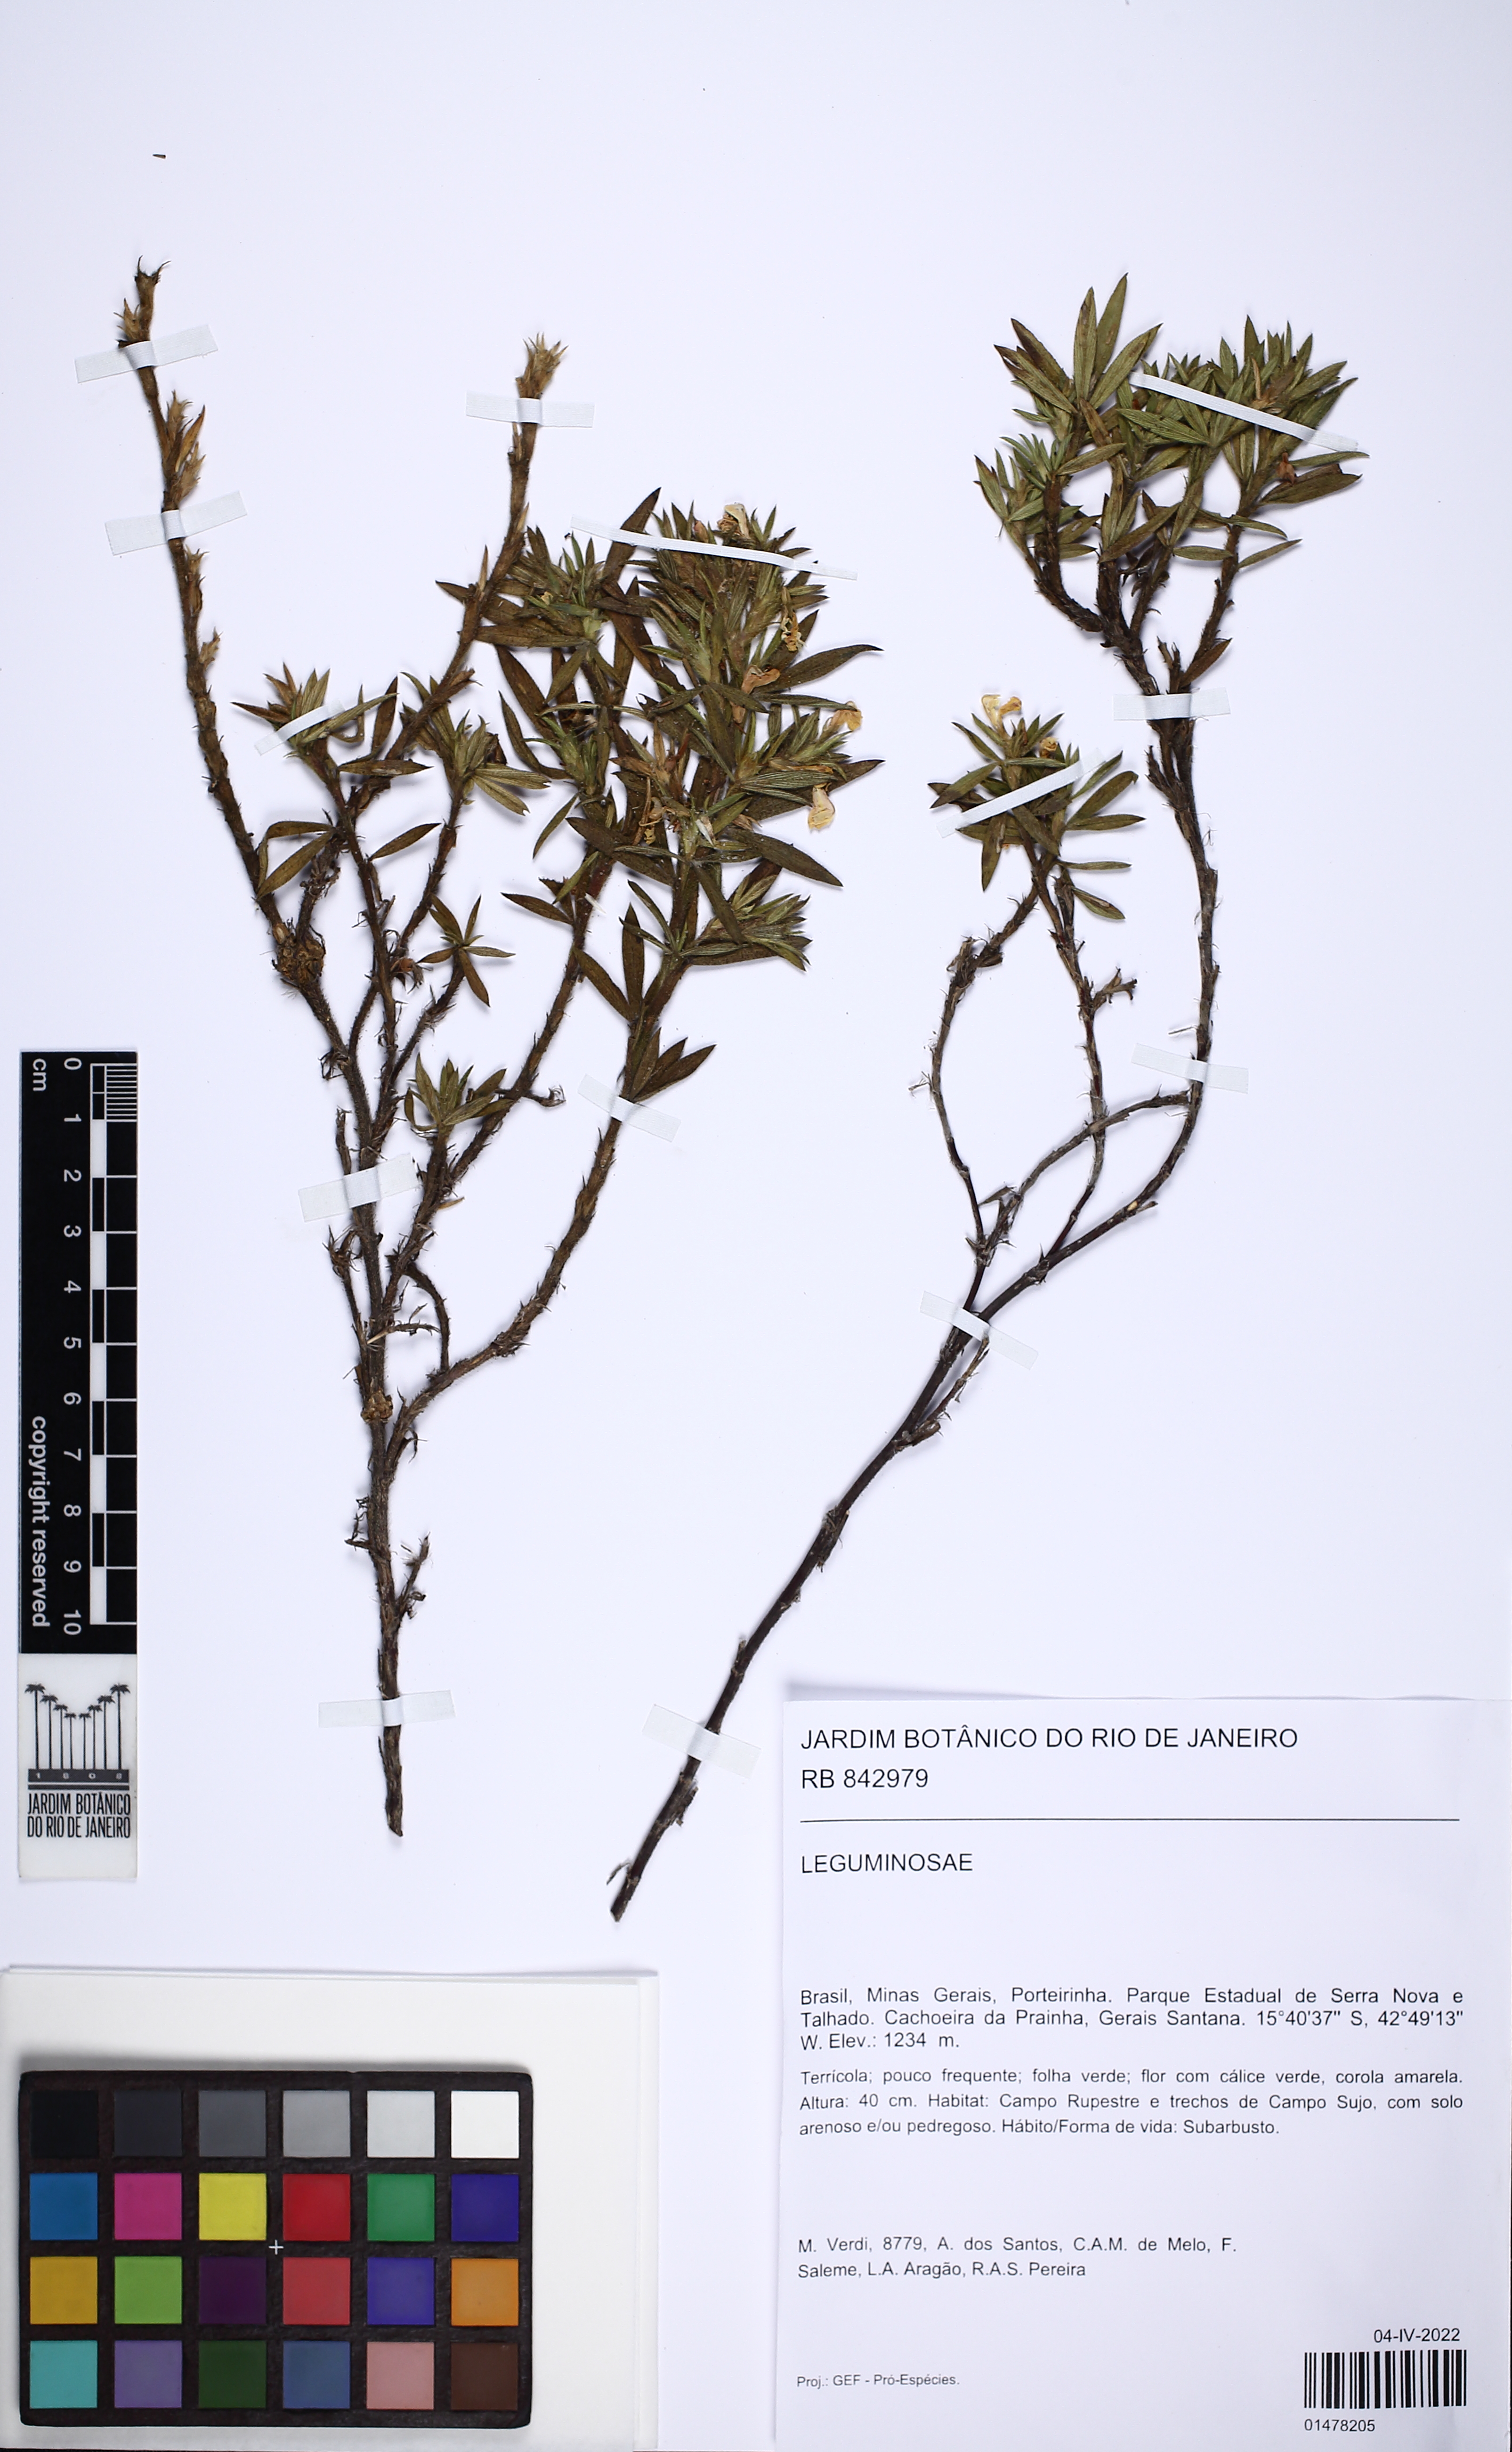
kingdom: Plantae
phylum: Tracheophyta
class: Magnoliopsida
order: Fabales
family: Fabaceae
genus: Stylosanthes
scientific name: Stylosanthes
